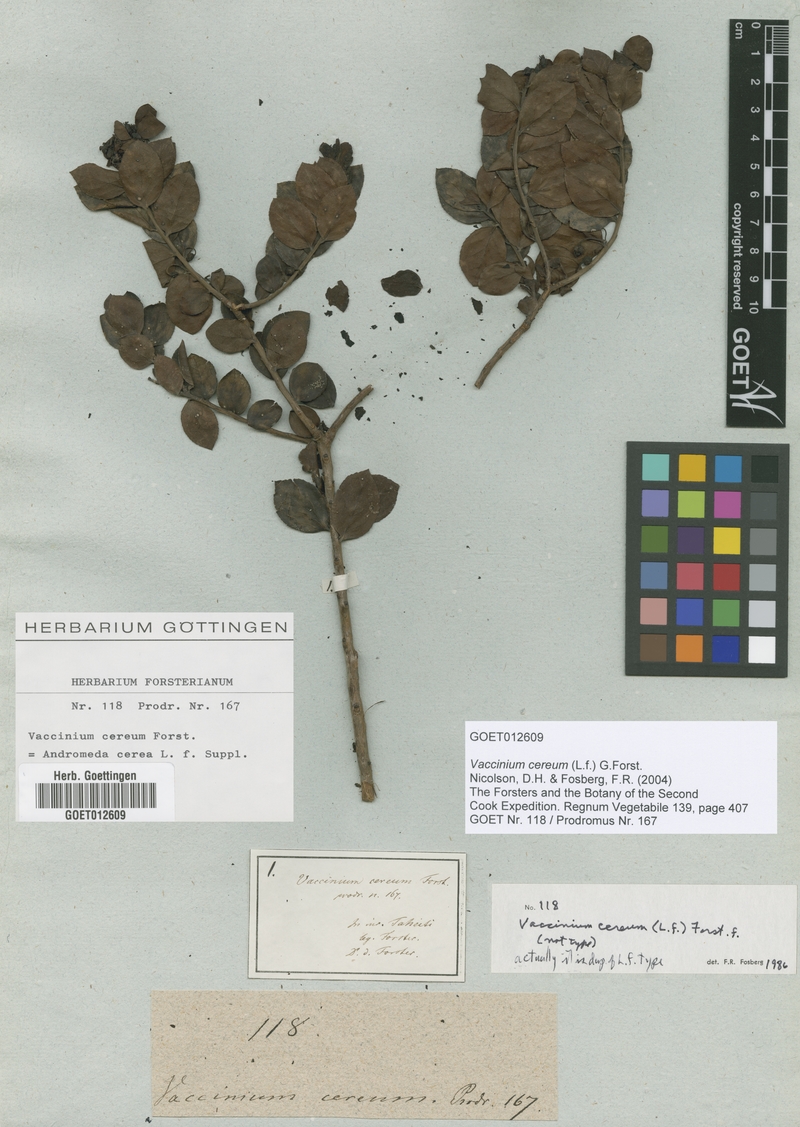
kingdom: Plantae
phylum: Tracheophyta
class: Magnoliopsida
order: Ericales
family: Ericaceae
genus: Vaccinium
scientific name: Vaccinium cereum
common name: East polynesian blueberry
